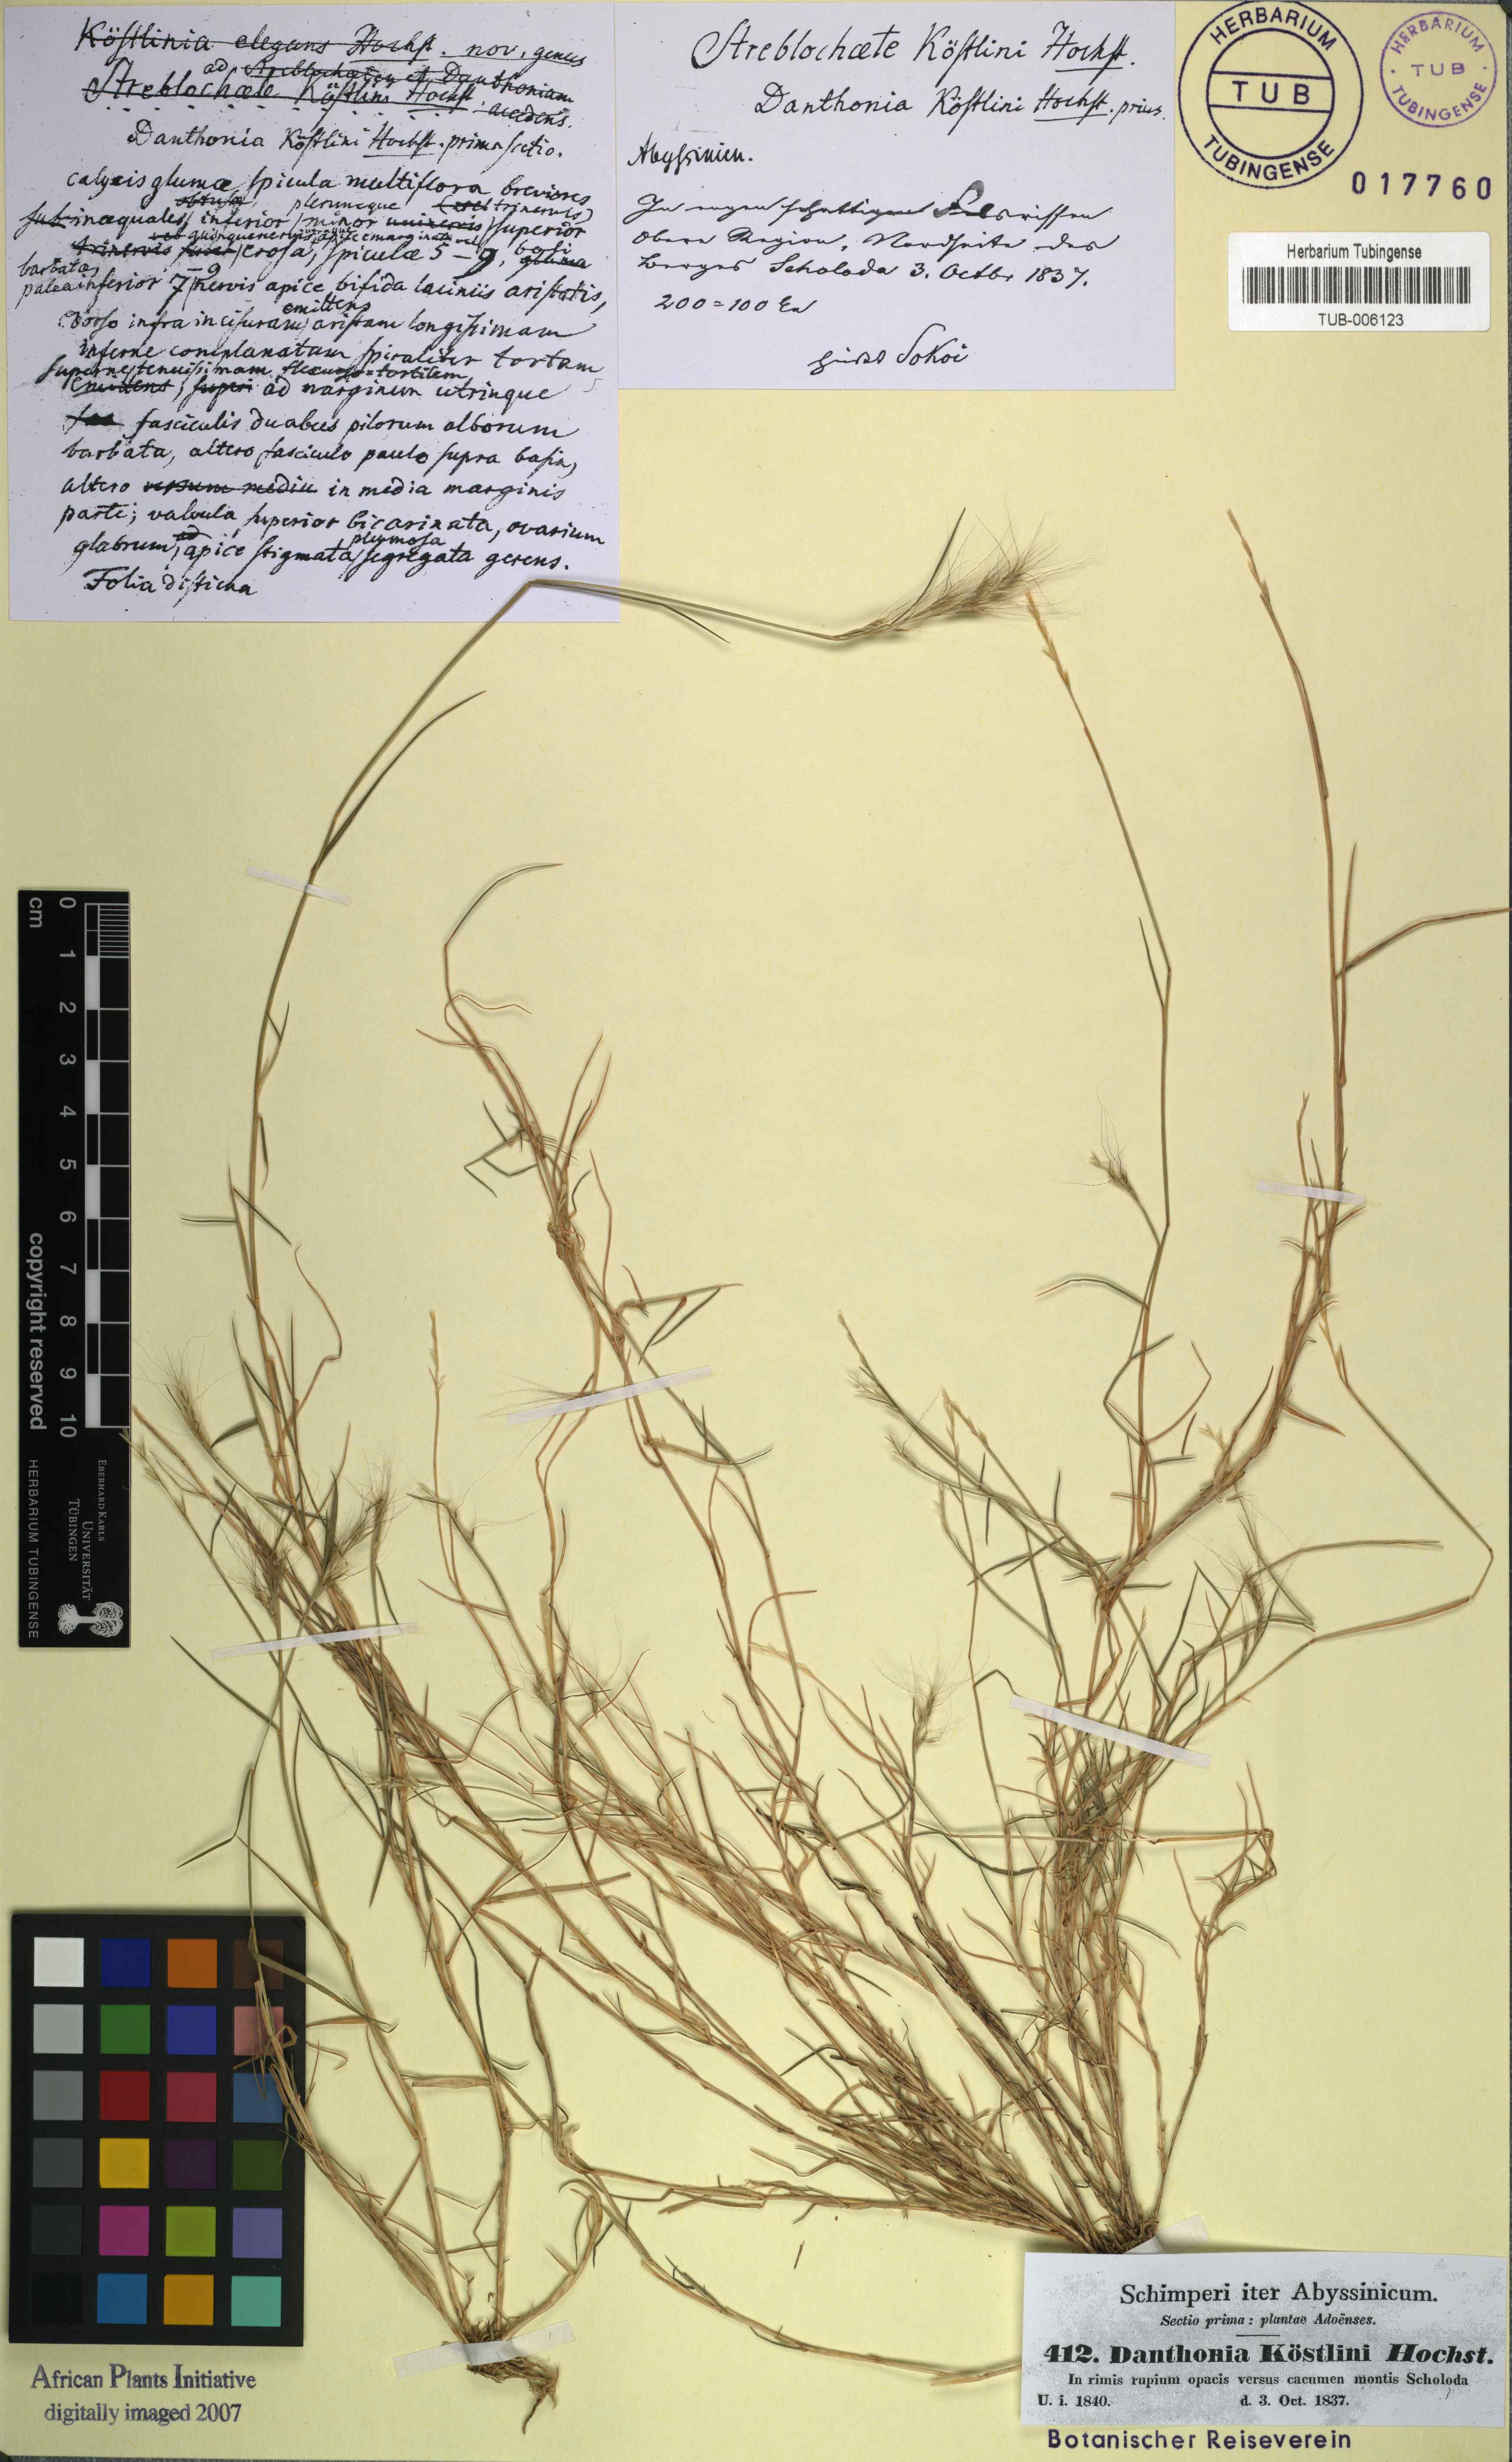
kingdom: Plantae
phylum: Tracheophyta
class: Liliopsida
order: Poales
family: Poaceae
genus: Koordersiochloa
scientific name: Koordersiochloa longiarista
